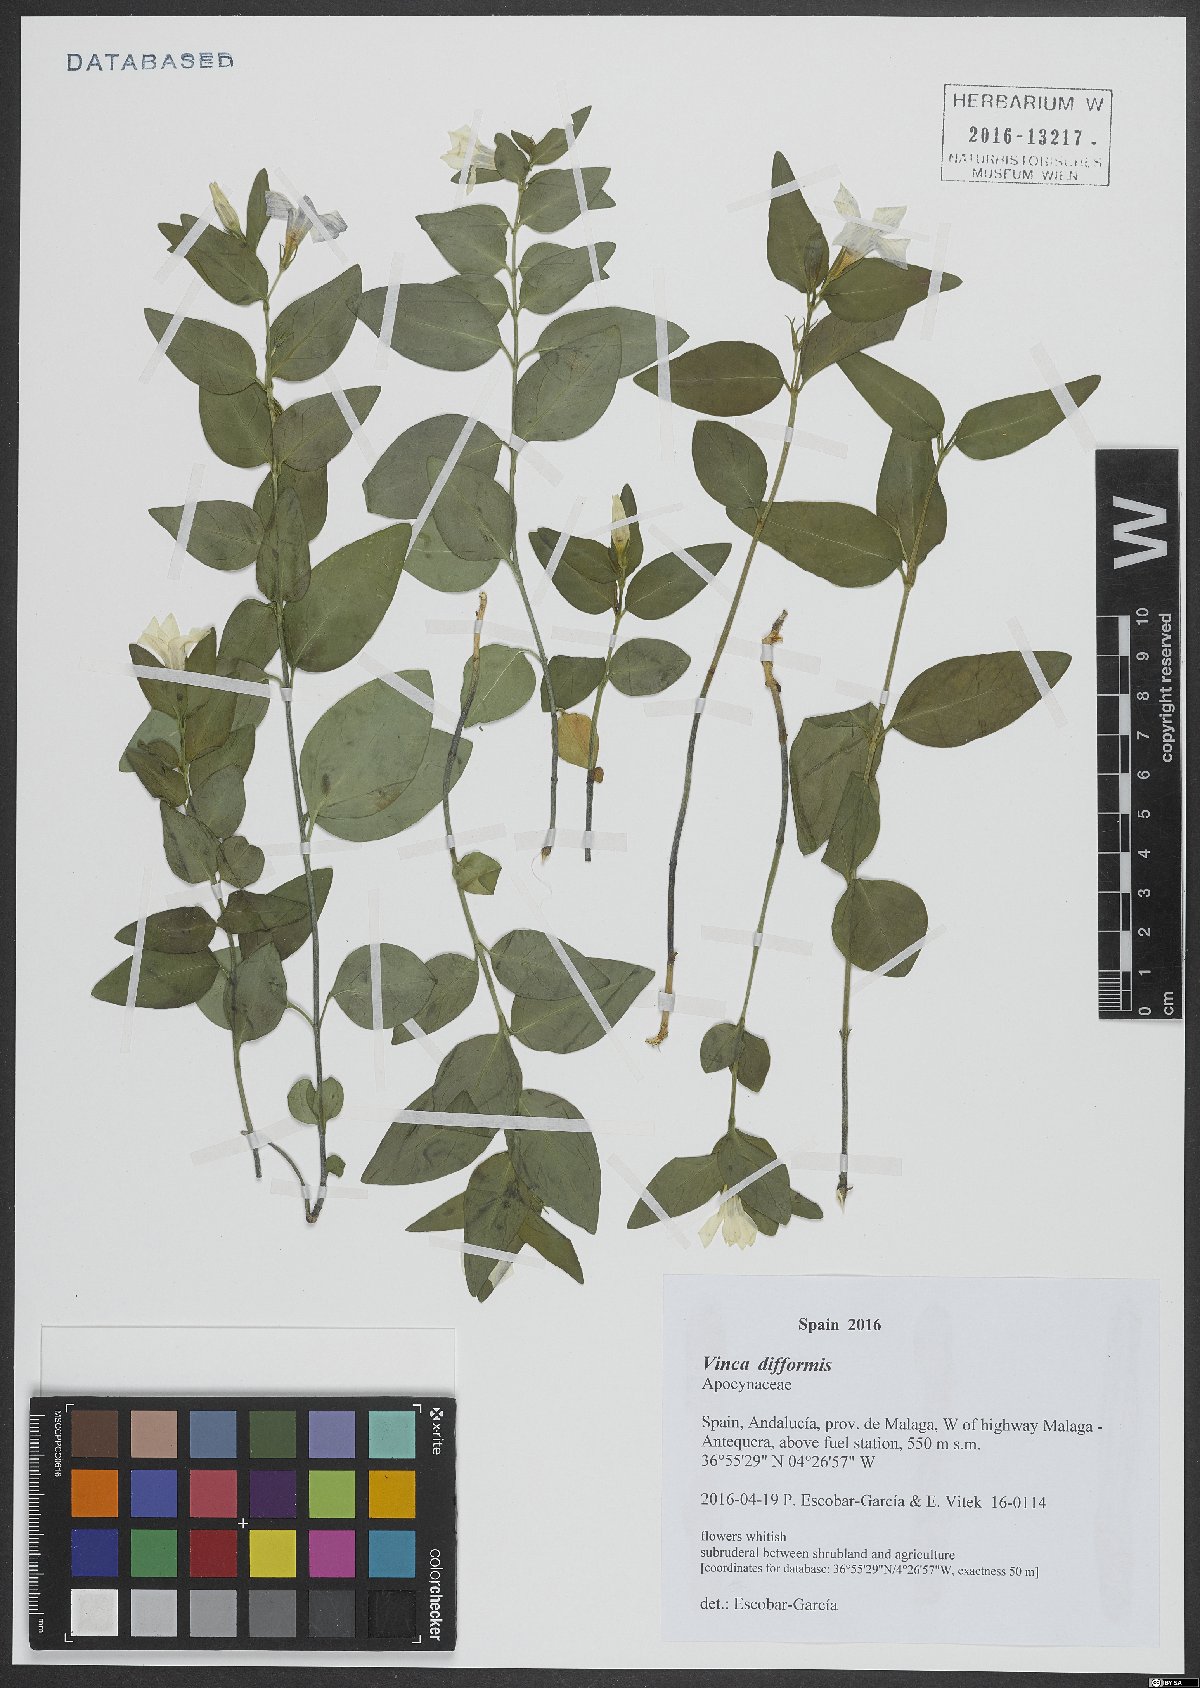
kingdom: Plantae
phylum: Tracheophyta
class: Magnoliopsida
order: Gentianales
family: Apocynaceae
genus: Vinca
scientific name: Vinca difformis
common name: Intermediate periwinkle
